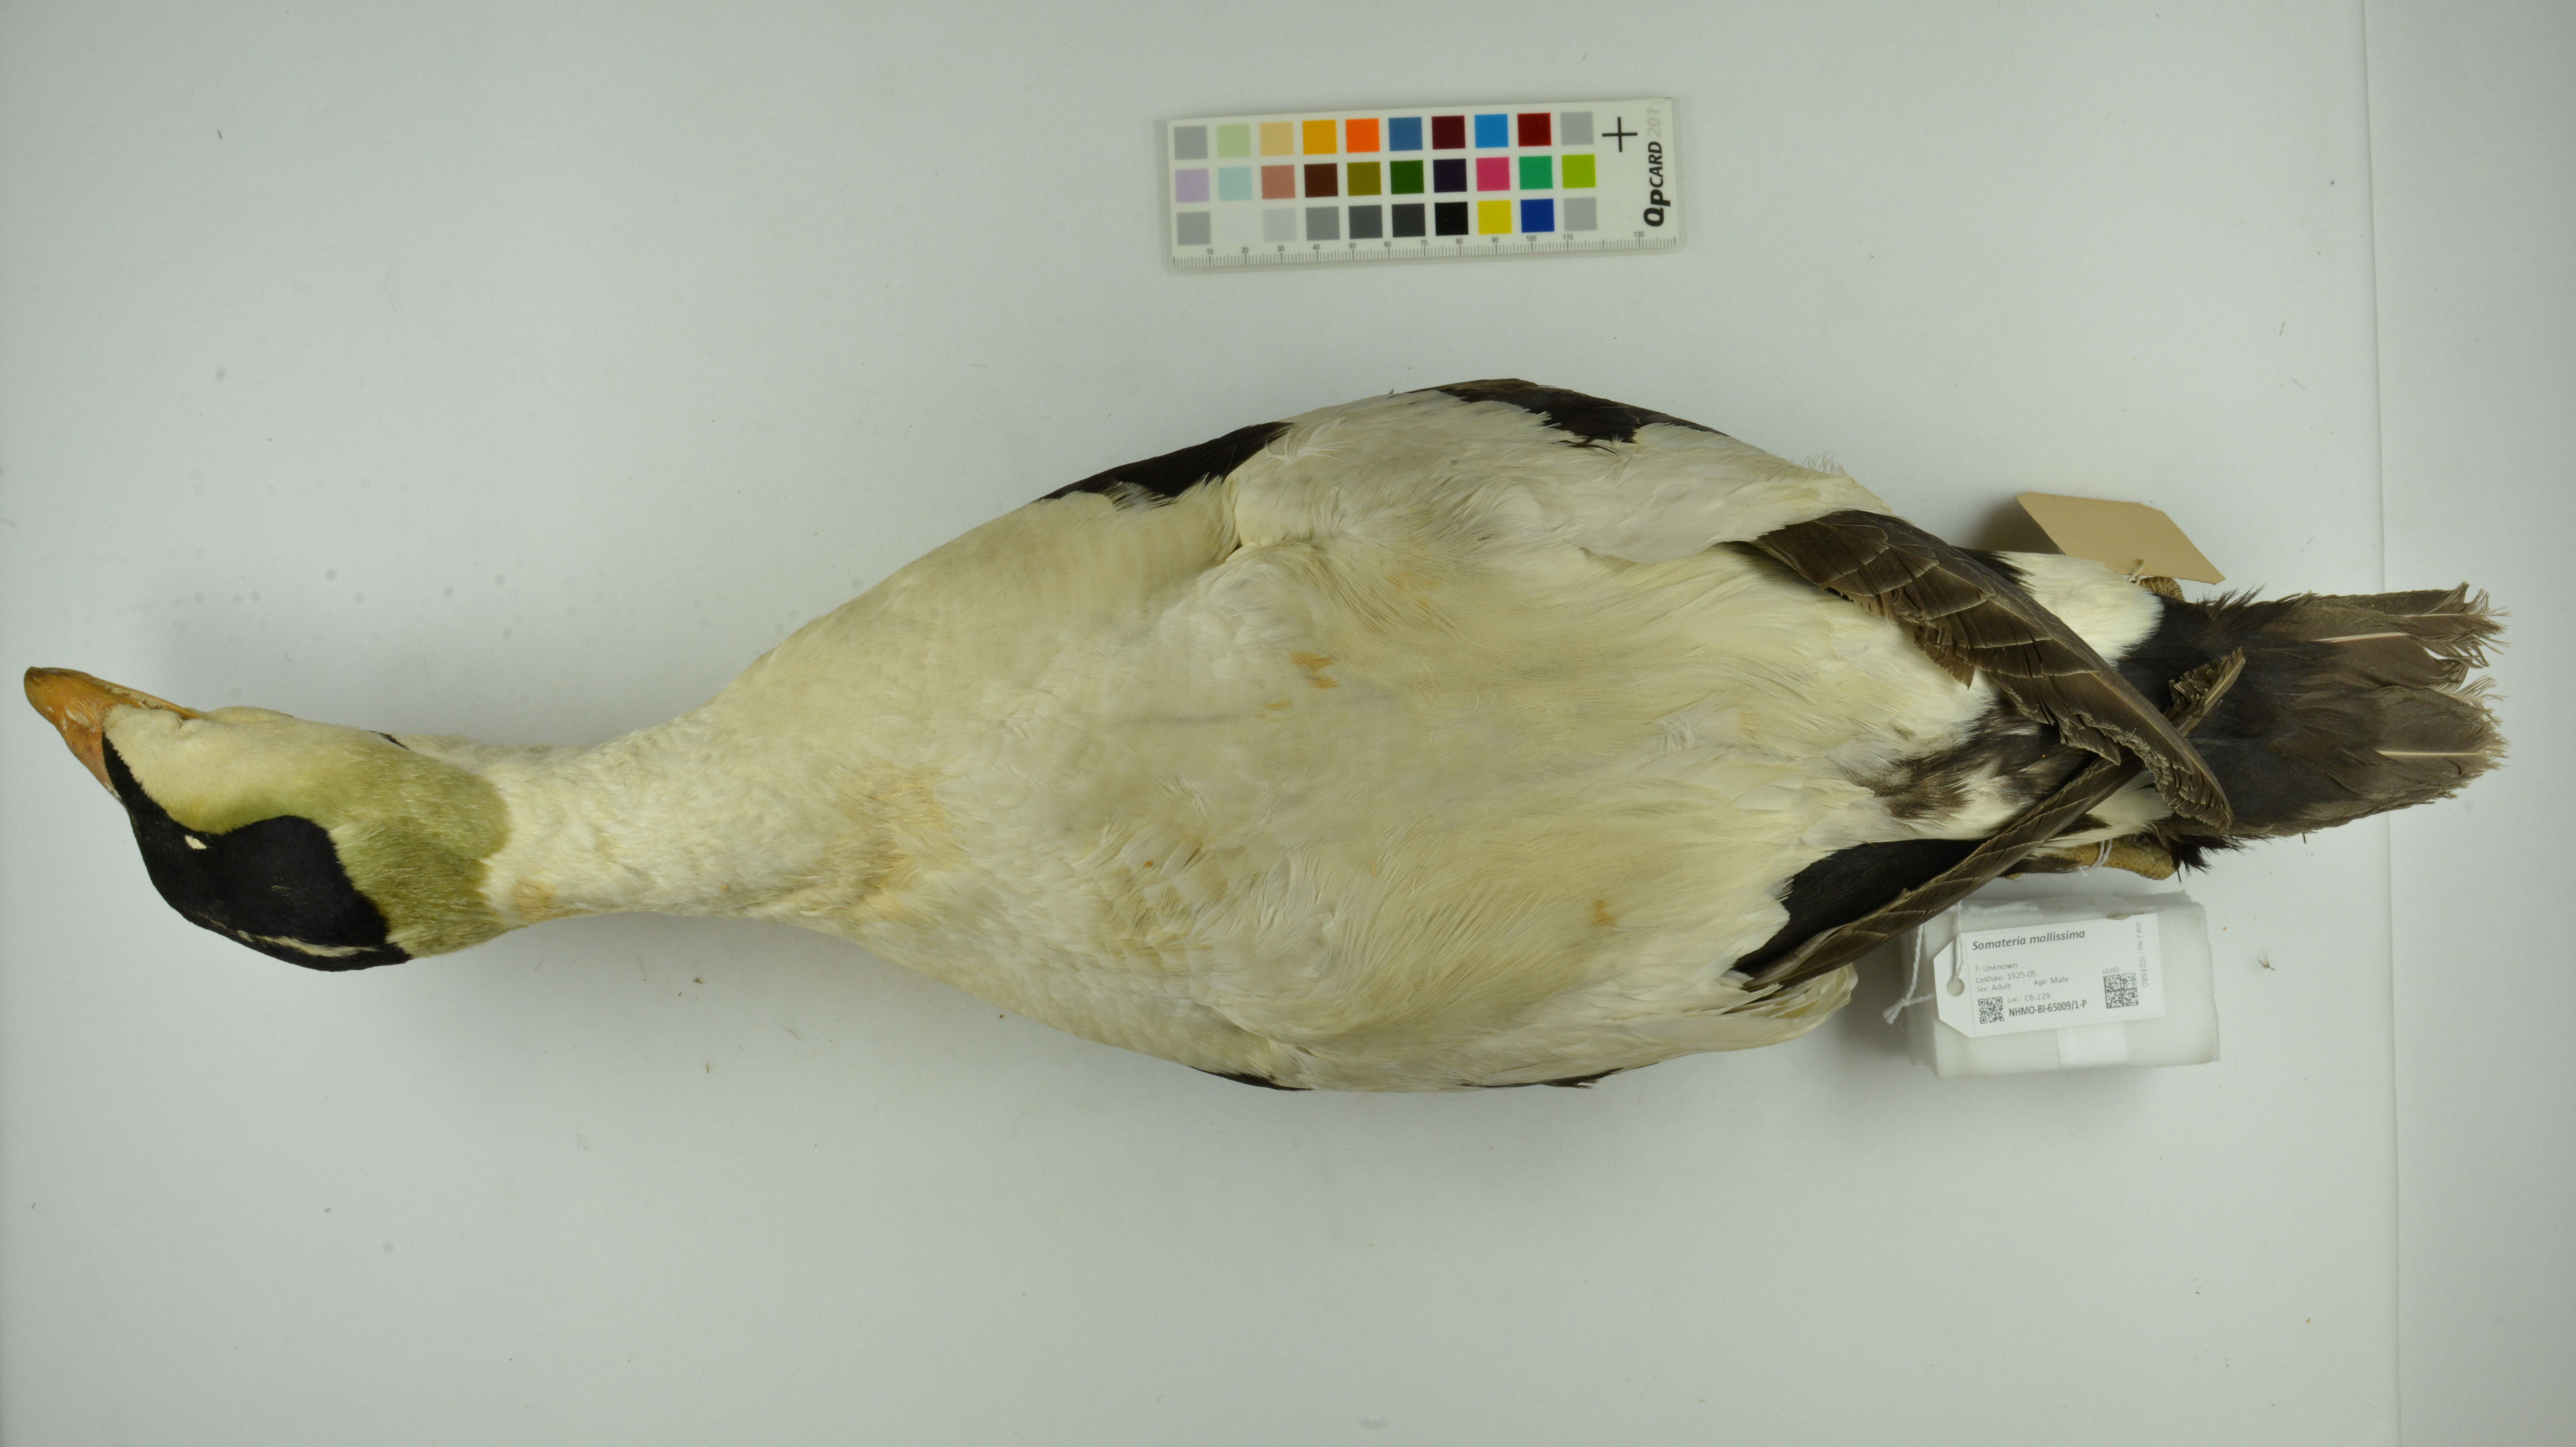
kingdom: Animalia
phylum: Chordata
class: Aves
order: Anseriformes
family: Anatidae
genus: Somateria
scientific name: Somateria mollissima
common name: Common eider
